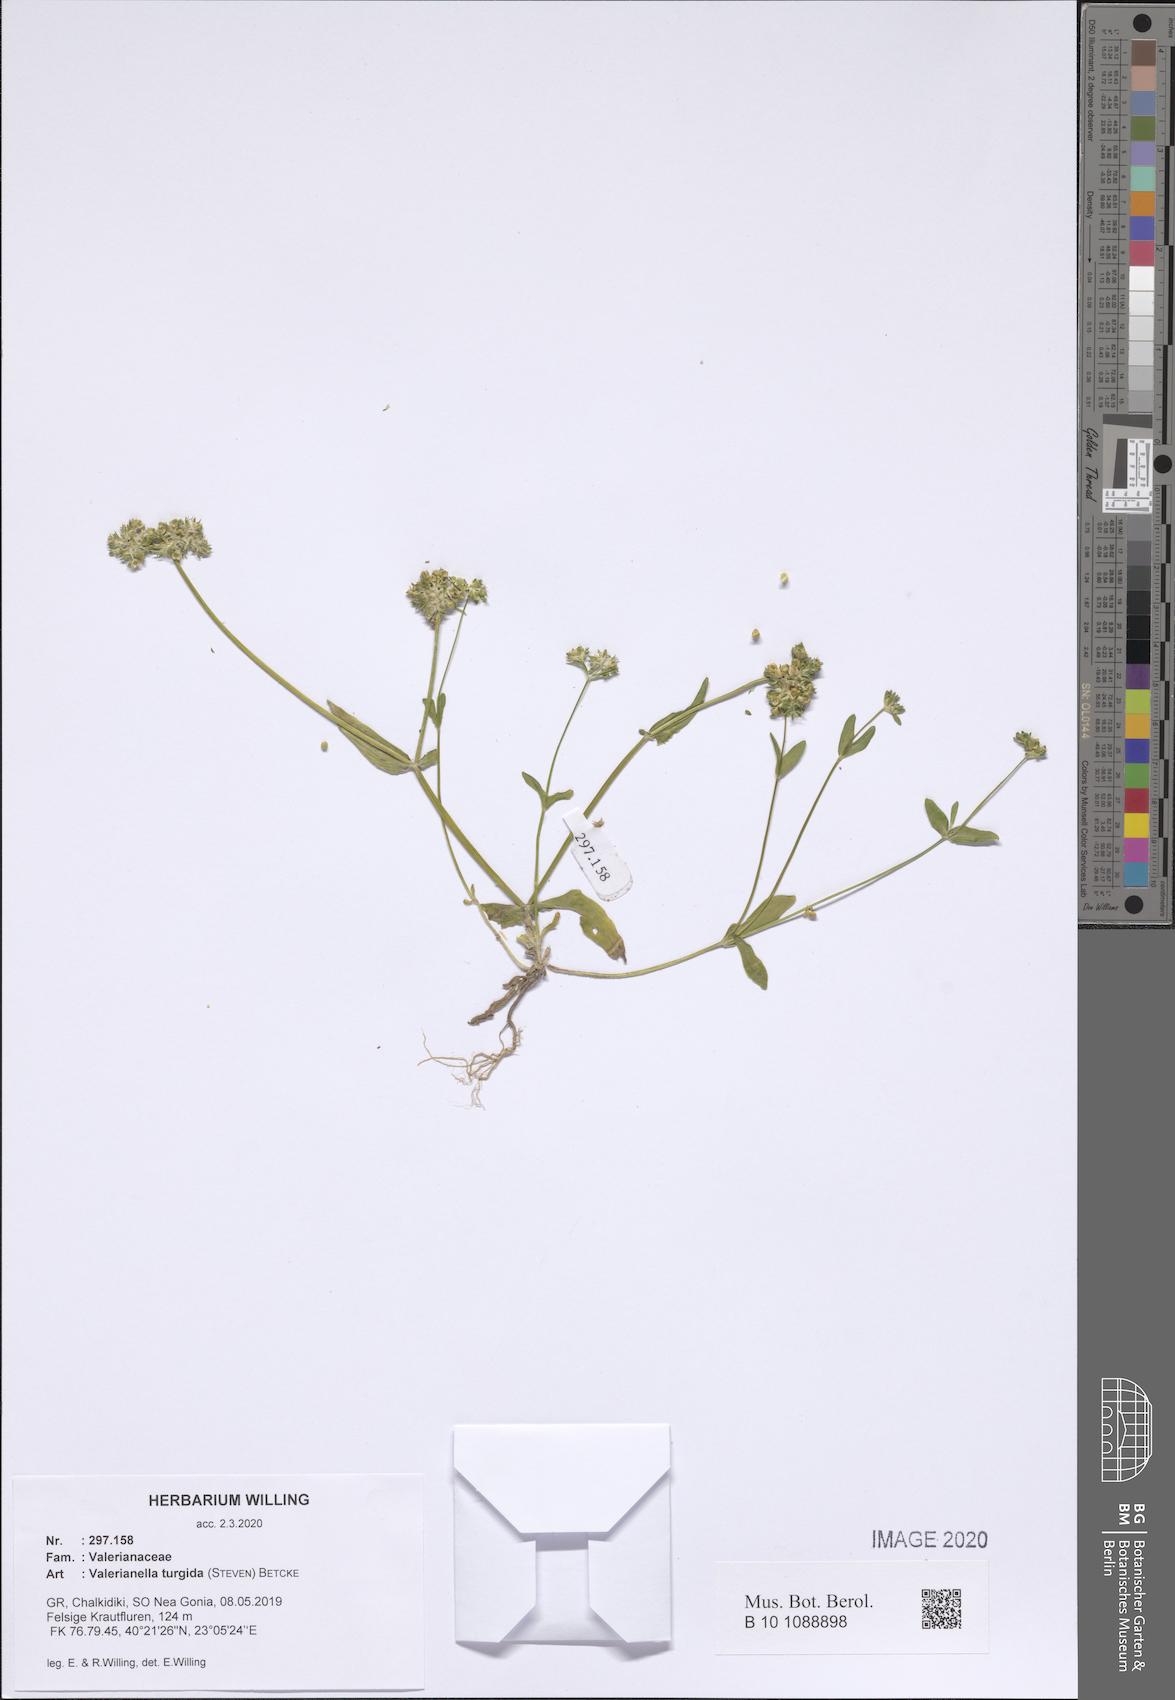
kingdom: Plantae
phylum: Tracheophyta
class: Magnoliopsida
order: Dipsacales
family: Caprifoliaceae
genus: Valerianella
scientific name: Valerianella turgida
